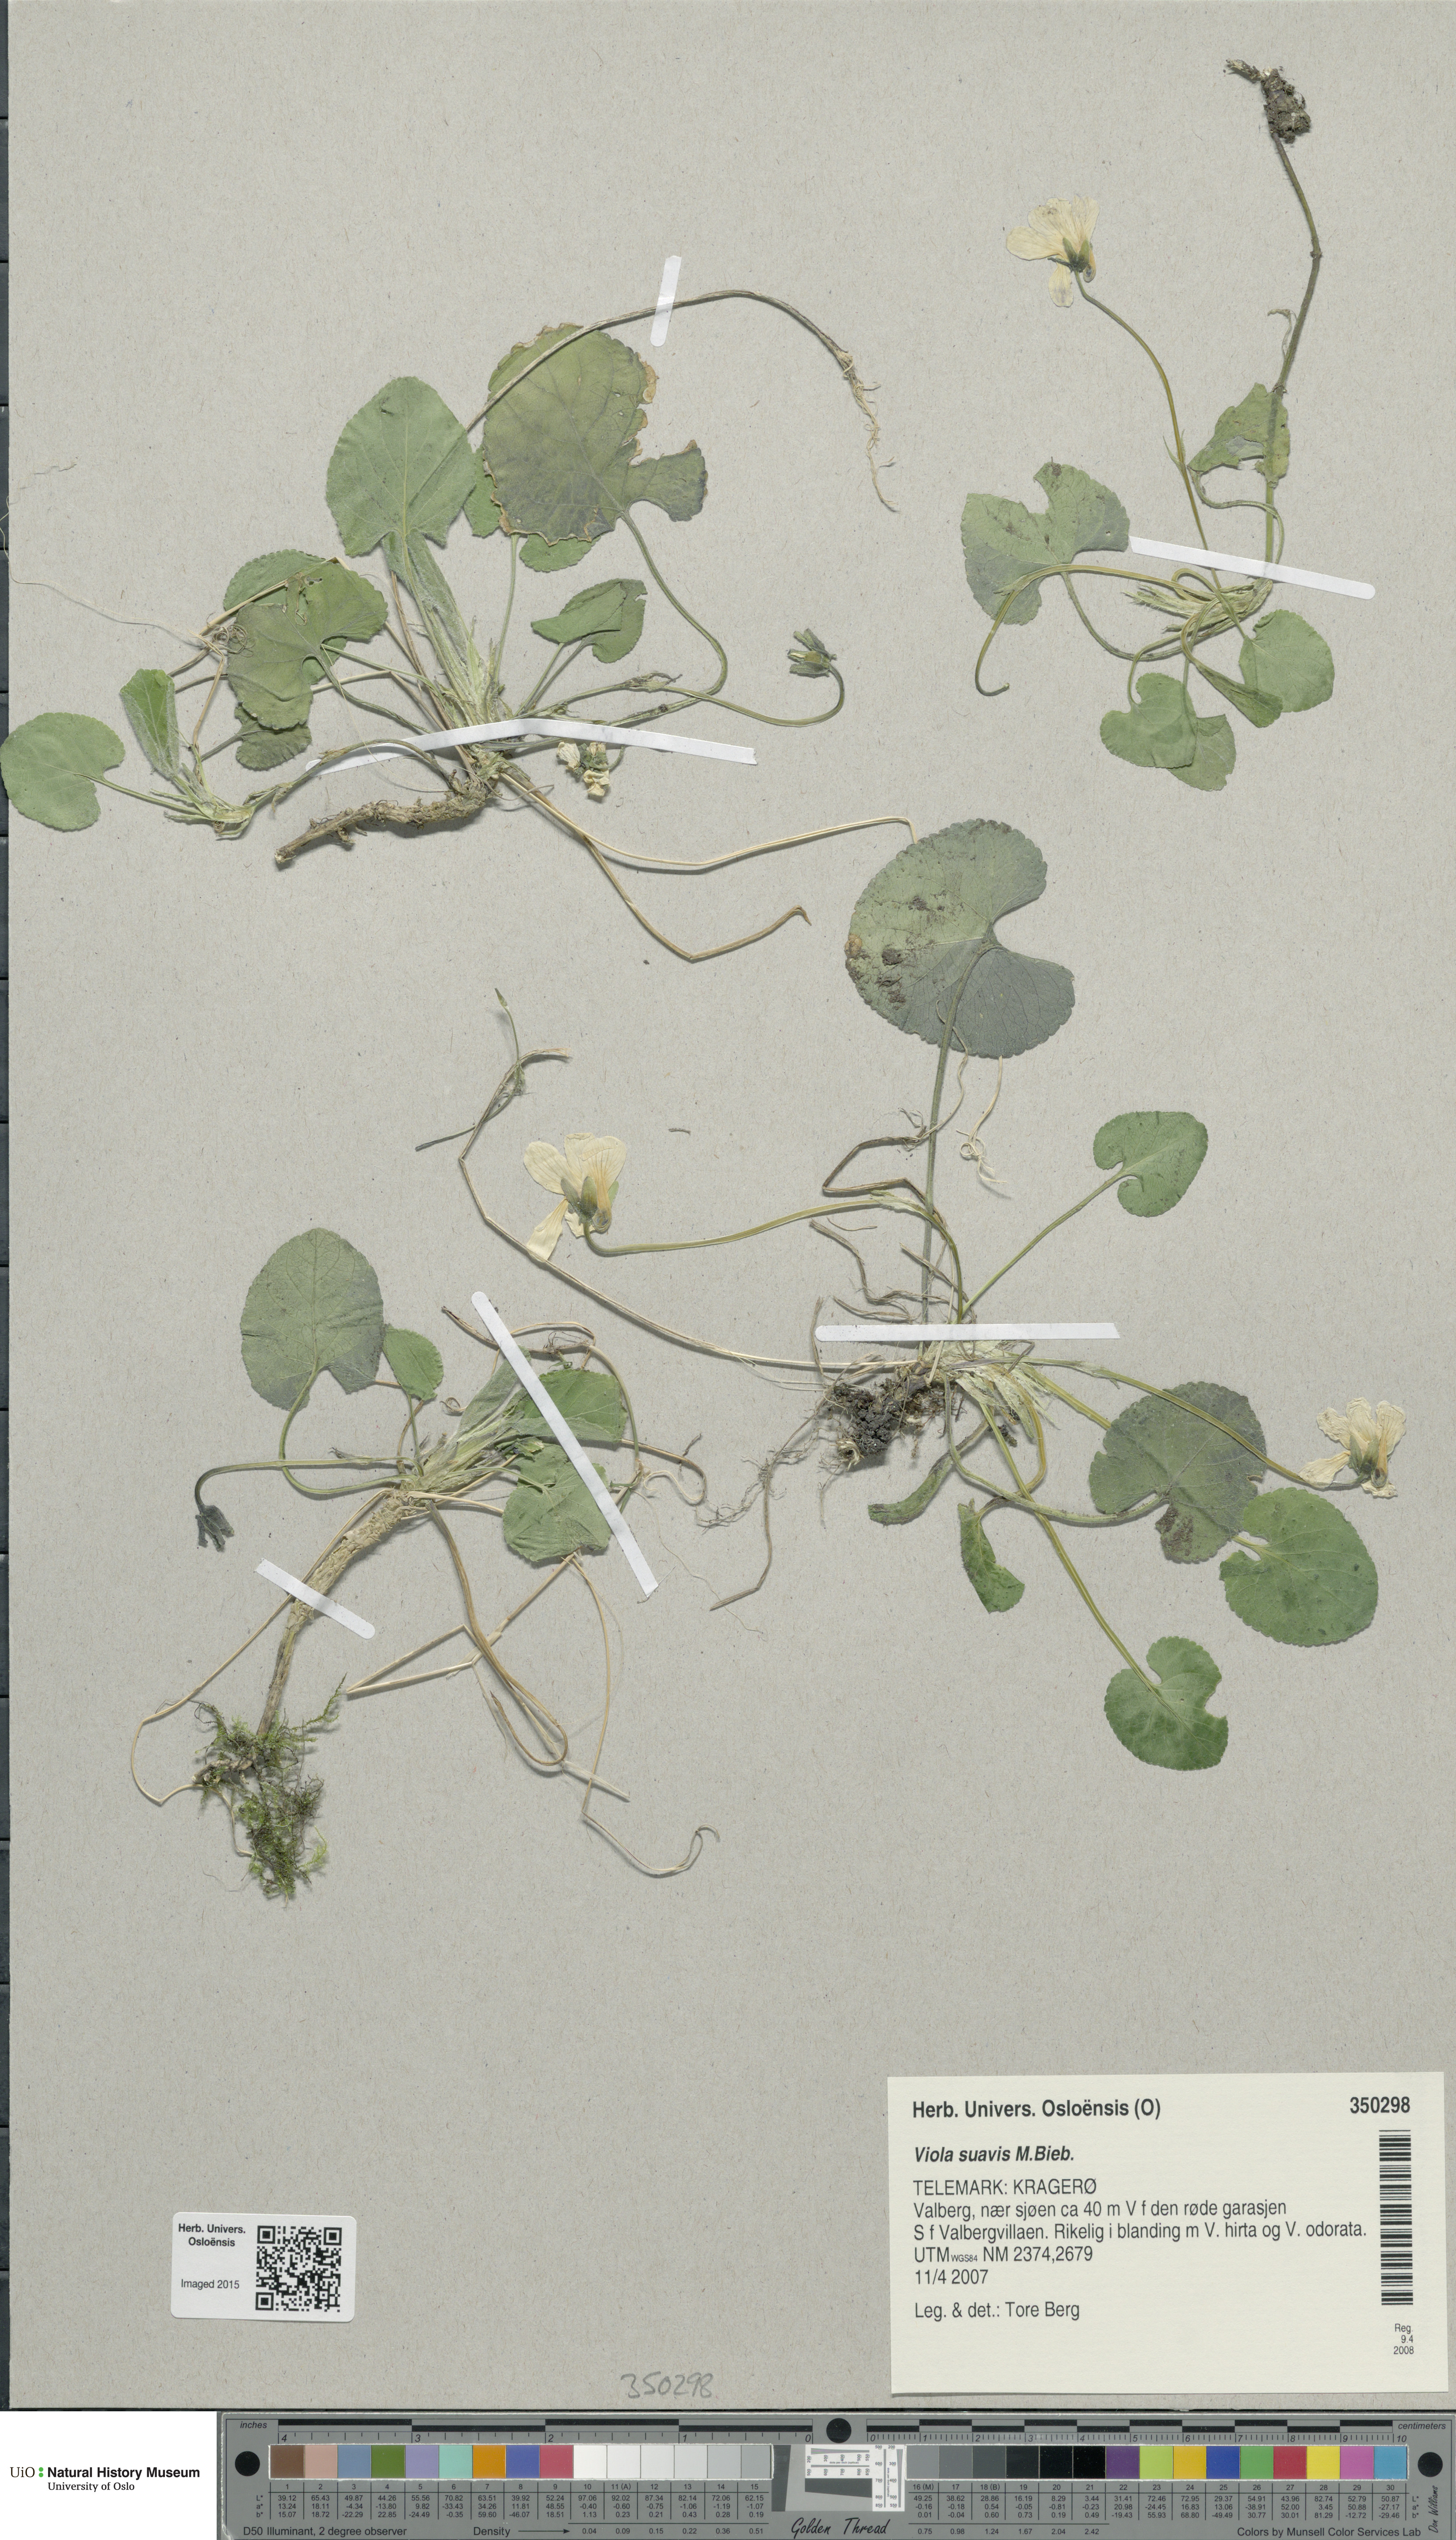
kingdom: Plantae
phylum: Tracheophyta
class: Magnoliopsida
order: Malpighiales
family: Violaceae
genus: Viola
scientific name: Viola suavis
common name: Russian violet
